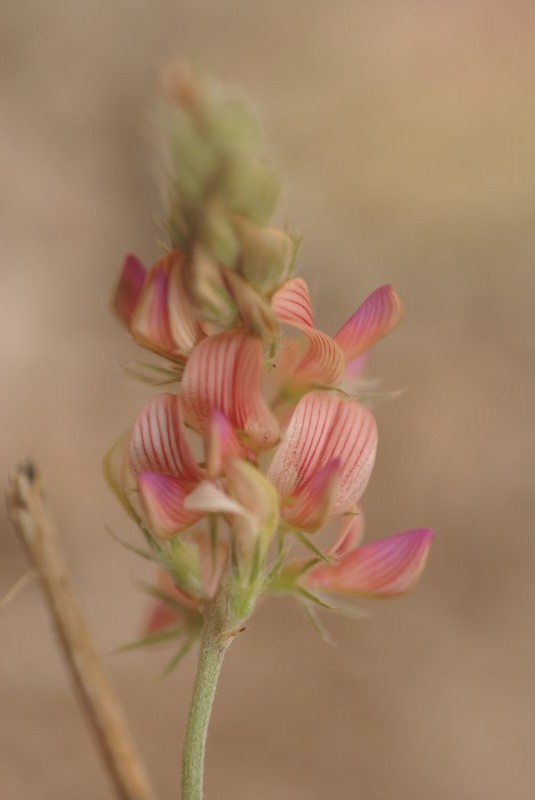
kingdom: Plantae
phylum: Tracheophyta
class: Magnoliopsida
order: Fabales
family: Fabaceae
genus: Onobrychis
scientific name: Onobrychis viciifolia
